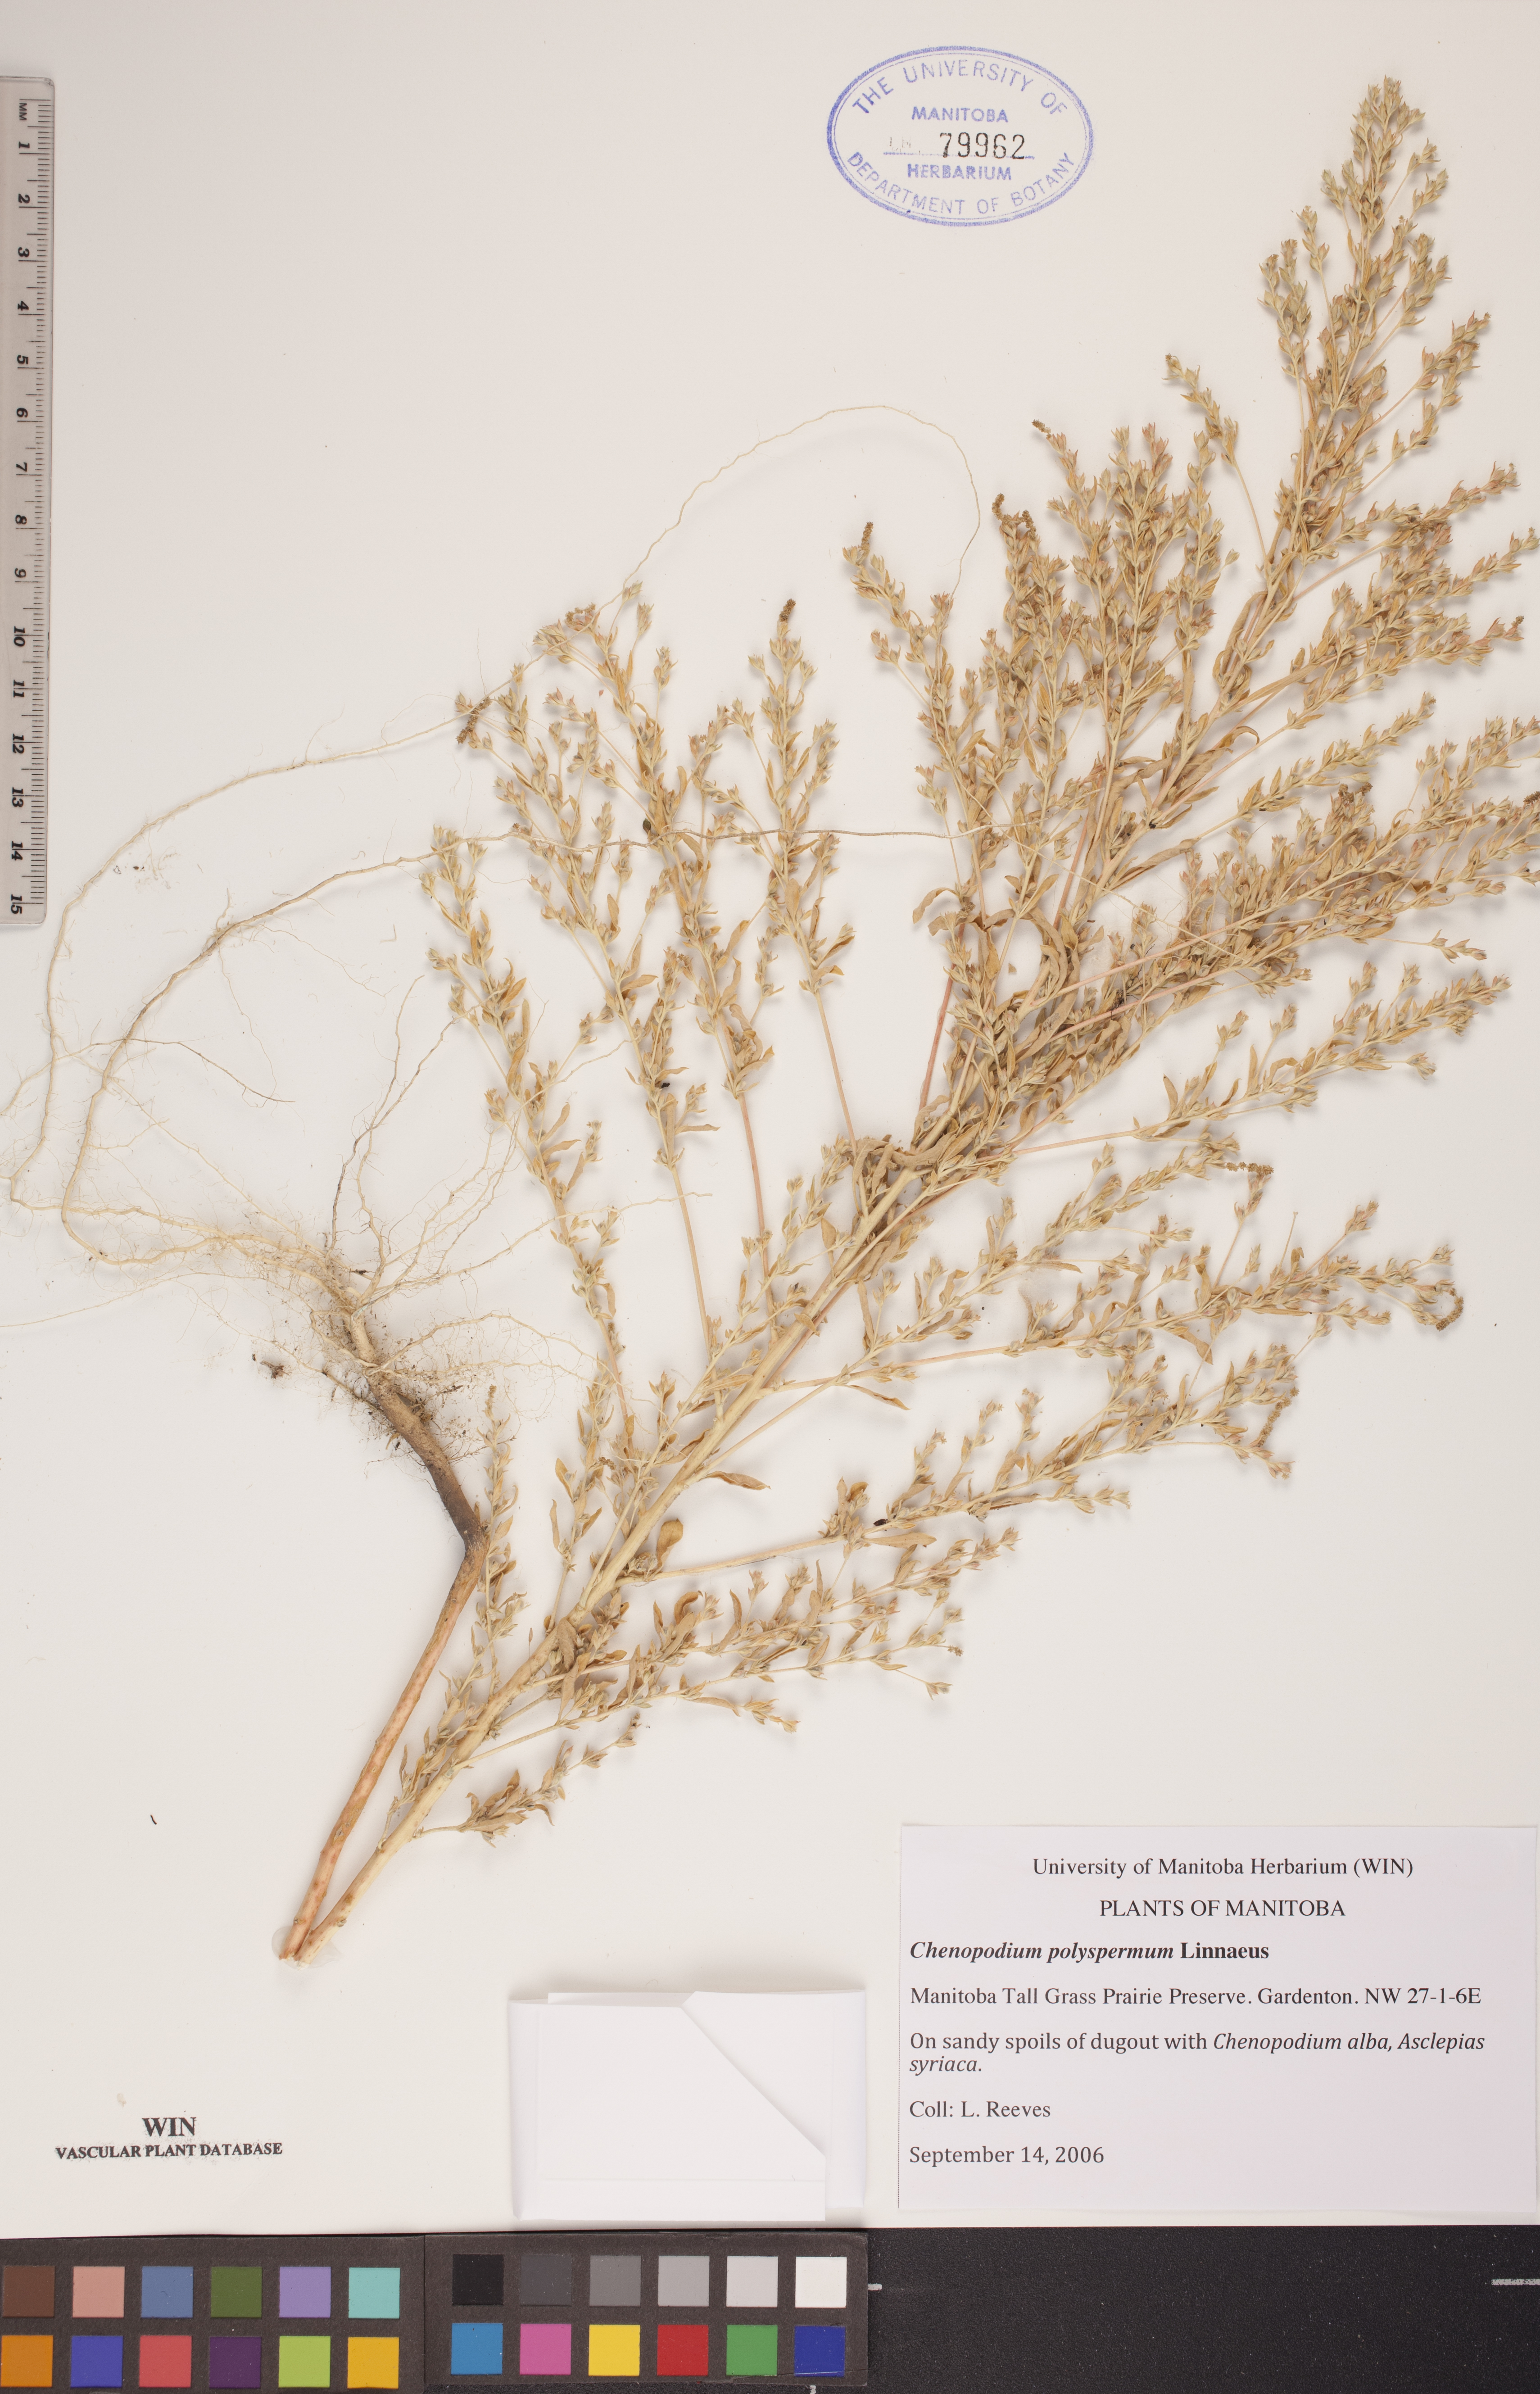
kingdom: Plantae
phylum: Tracheophyta
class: Magnoliopsida
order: Caryophyllales
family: Amaranthaceae
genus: Lipandra
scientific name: Lipandra polysperma
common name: Many-seed goosefoot
